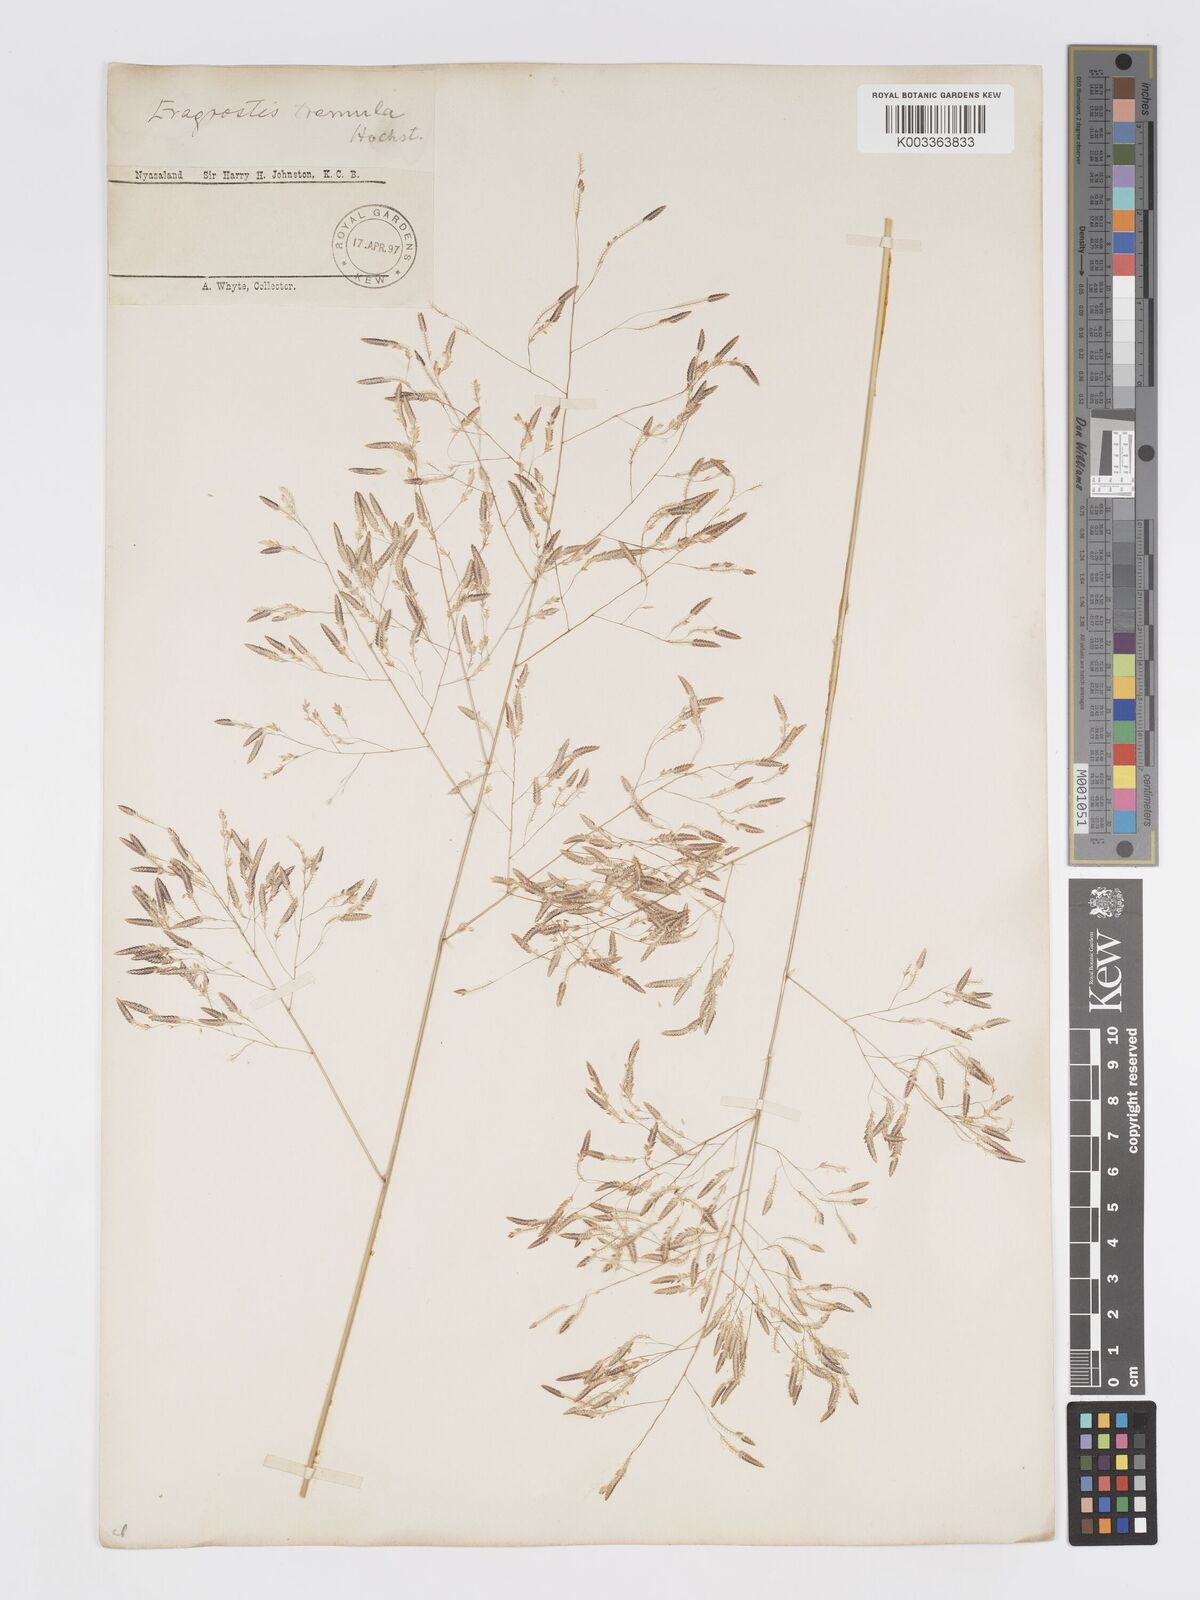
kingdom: Plantae
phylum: Tracheophyta
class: Liliopsida
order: Poales
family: Poaceae
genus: Eragrostis
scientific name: Eragrostis tremula
